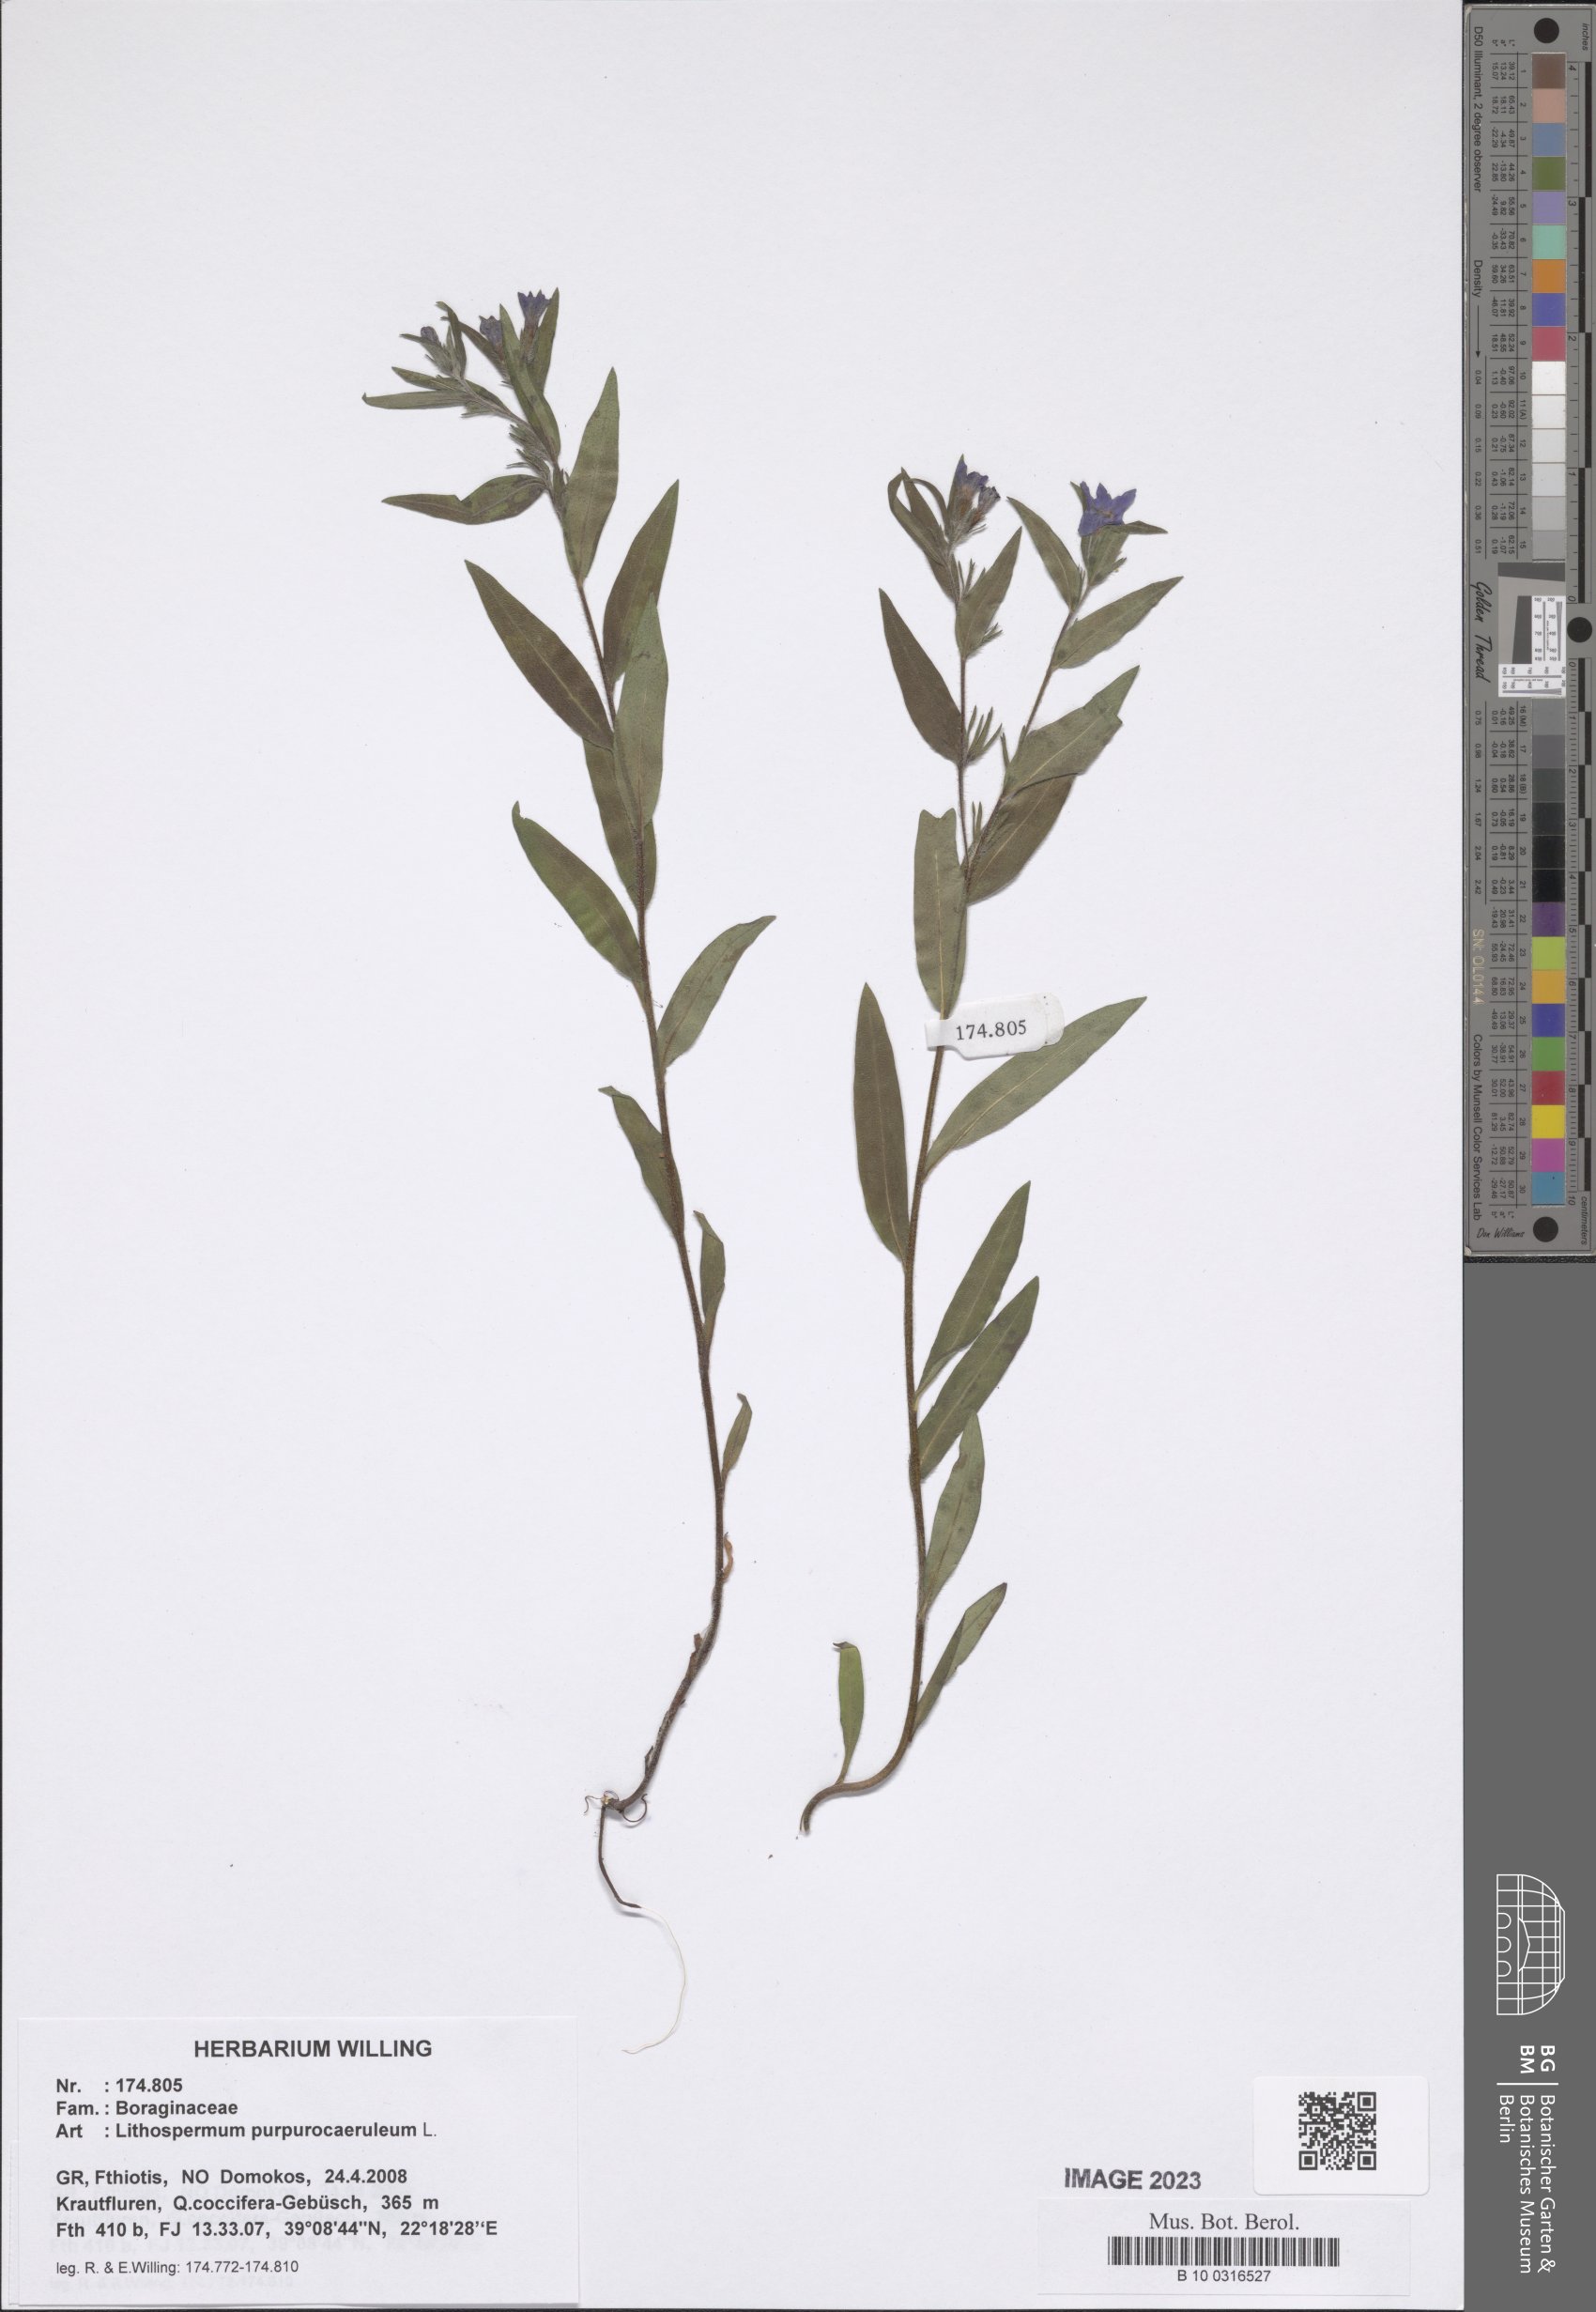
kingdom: Plantae
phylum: Tracheophyta
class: Magnoliopsida
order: Boraginales
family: Boraginaceae
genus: Aegonychon
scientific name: Aegonychon purpurocaeruleum
